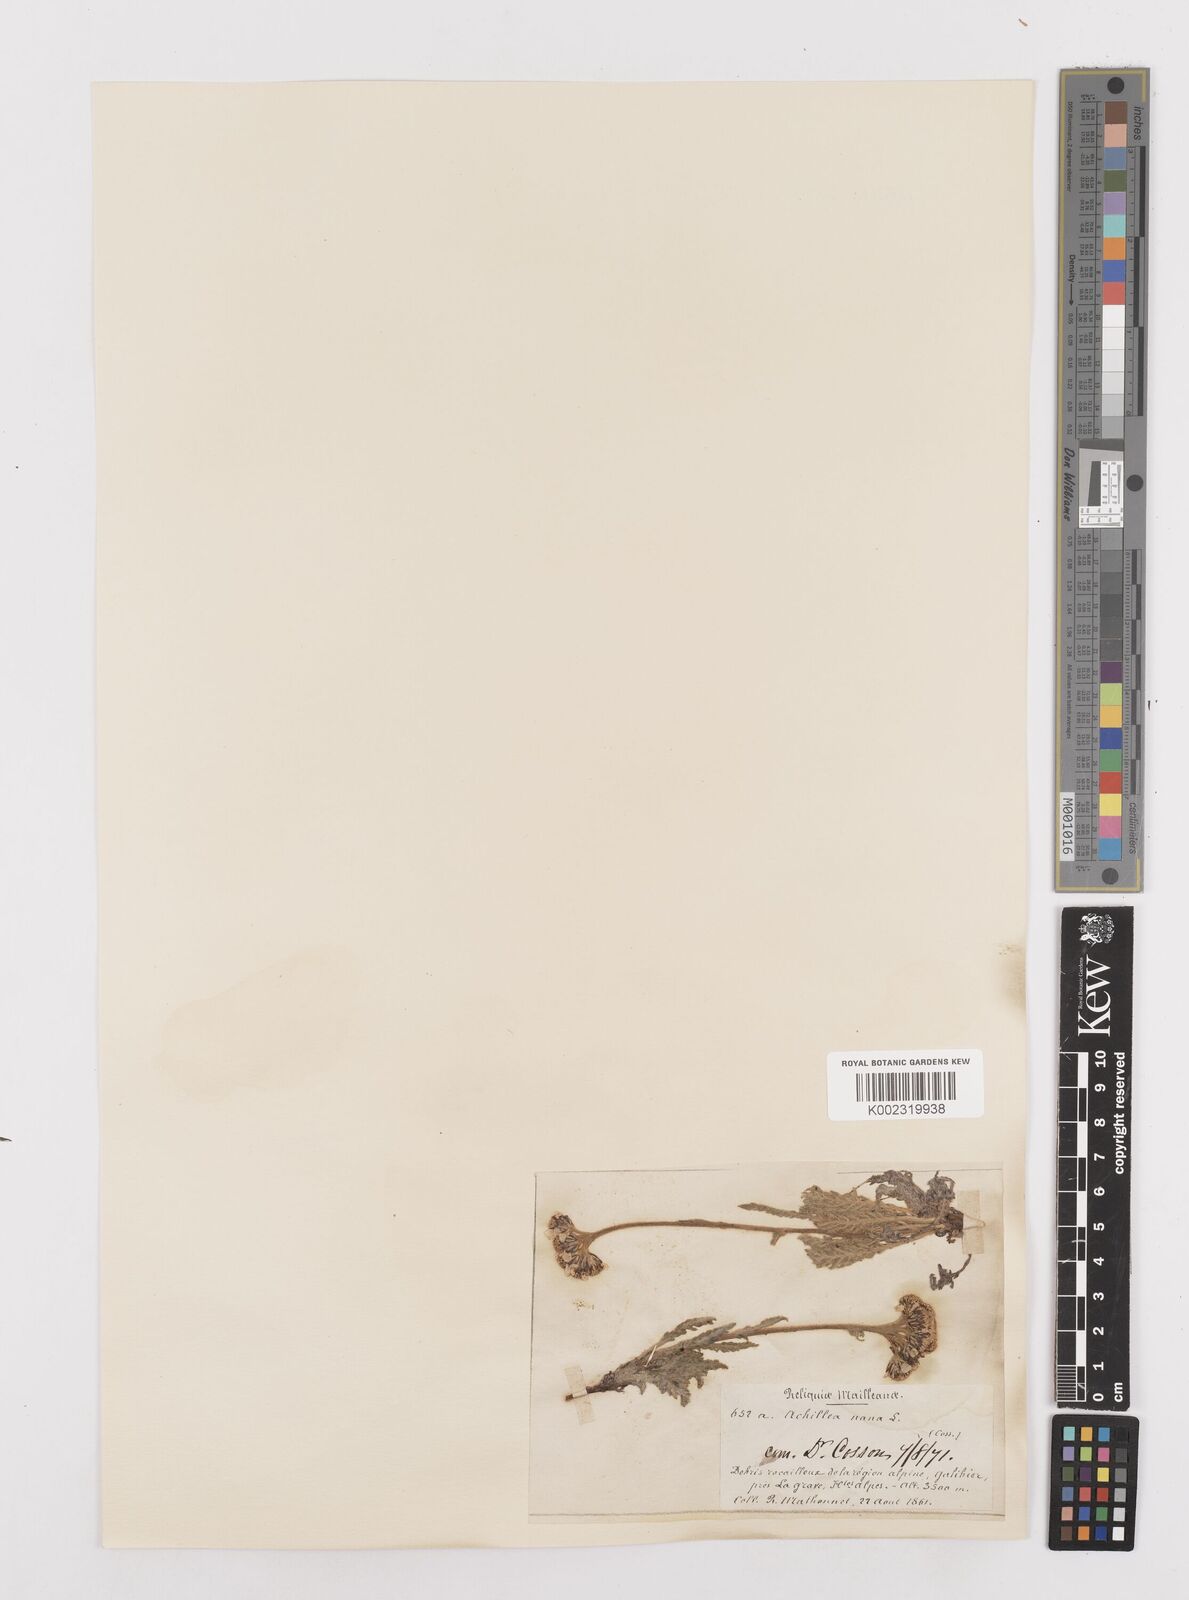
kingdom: Plantae
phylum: Tracheophyta
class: Magnoliopsida
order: Asterales
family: Asteraceae
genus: Achillea
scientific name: Achillea
